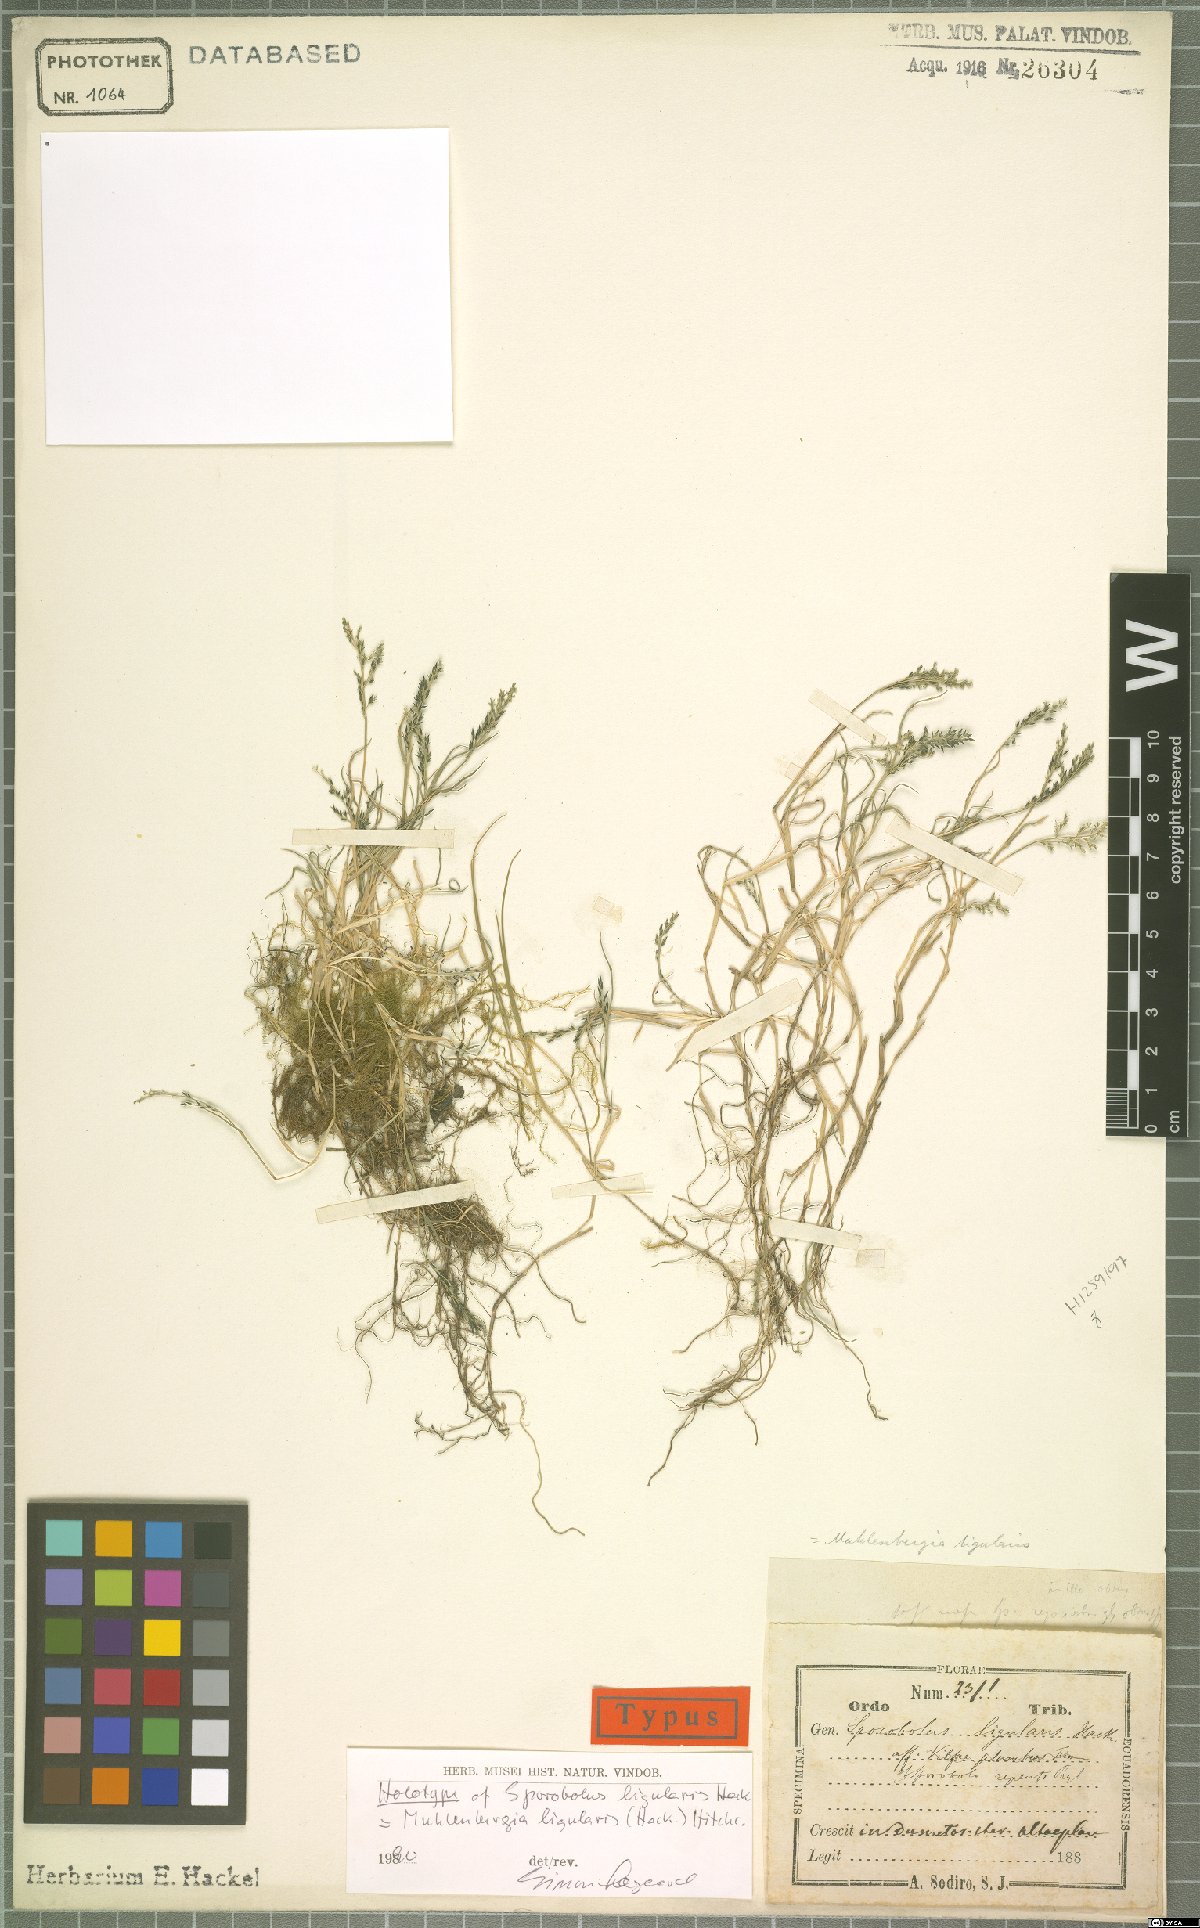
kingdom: Plantae
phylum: Tracheophyta
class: Liliopsida
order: Poales
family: Poaceae
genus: Muhlenbergia
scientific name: Muhlenbergia ligularis
